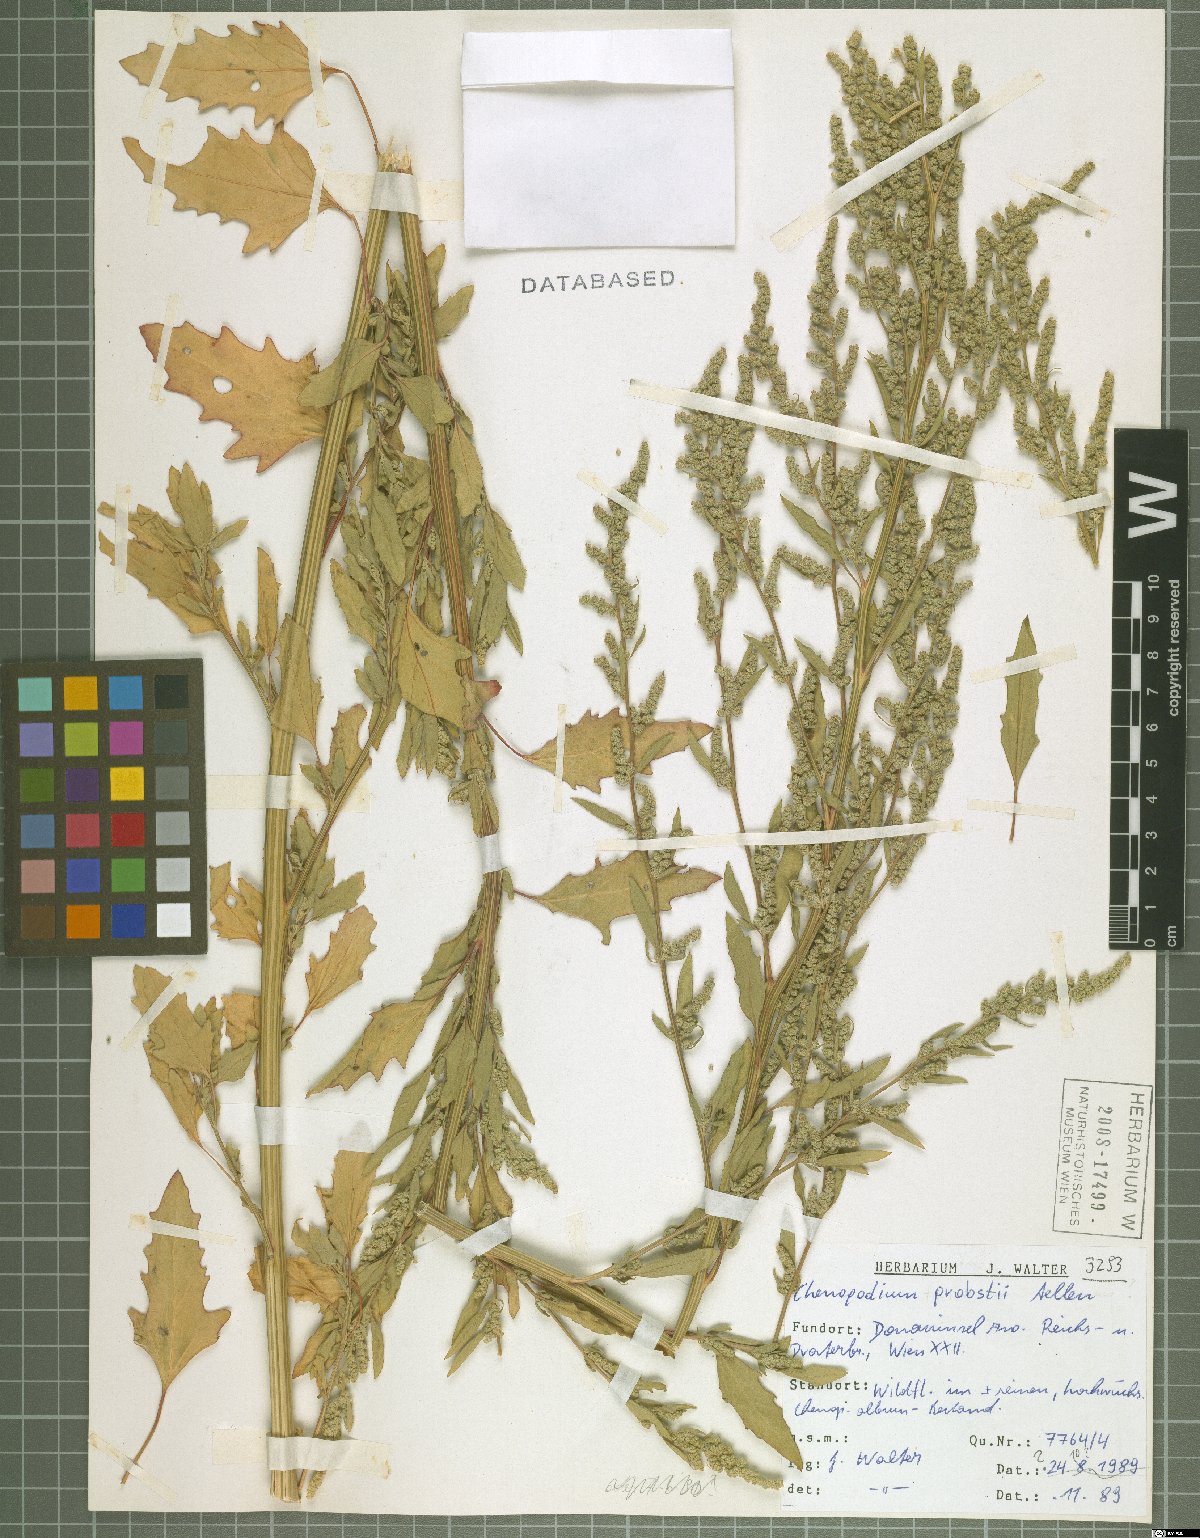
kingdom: Plantae
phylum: Tracheophyta
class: Magnoliopsida
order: Caryophyllales
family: Amaranthaceae
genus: Chenopodium
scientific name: Chenopodium probstii
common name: Probst's goosefoot
